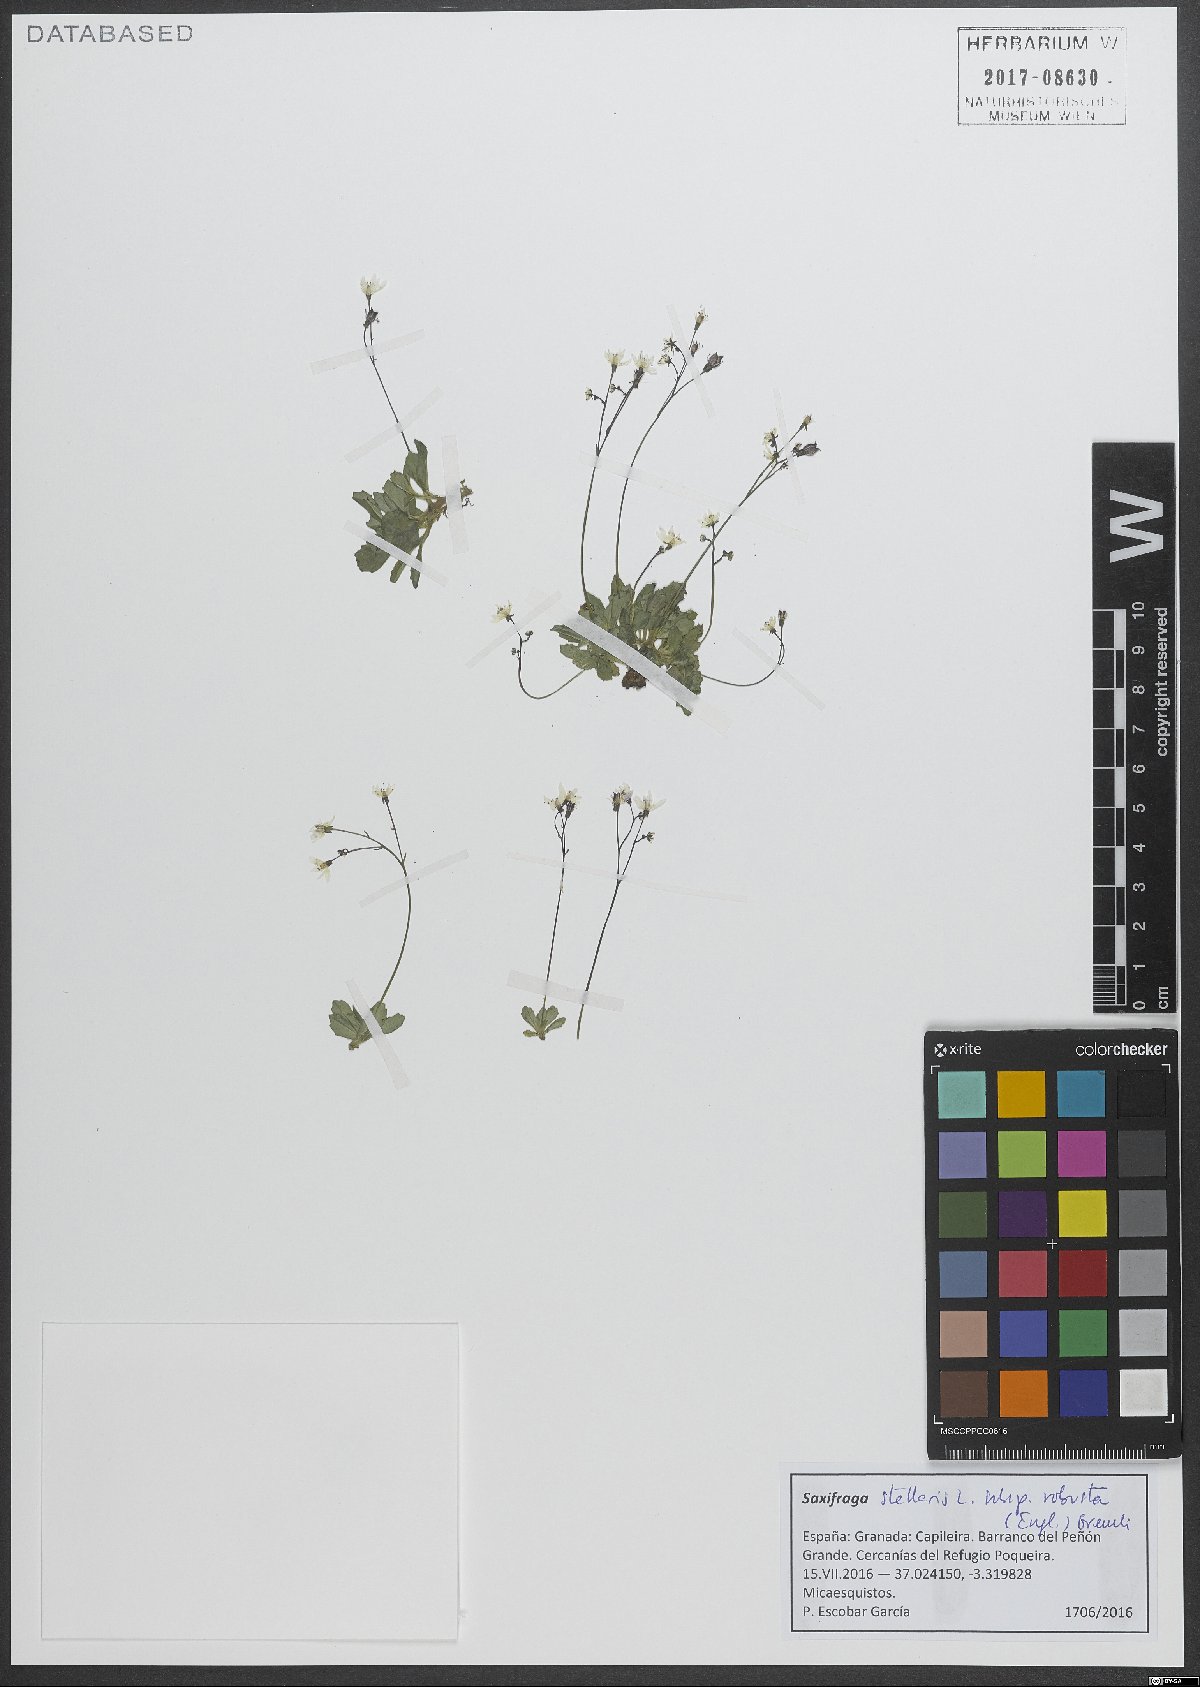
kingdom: Plantae
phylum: Tracheophyta
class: Magnoliopsida
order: Saxifragales
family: Saxifragaceae
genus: Micranthes
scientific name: Micranthes stellaris
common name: Starry saxifrage
